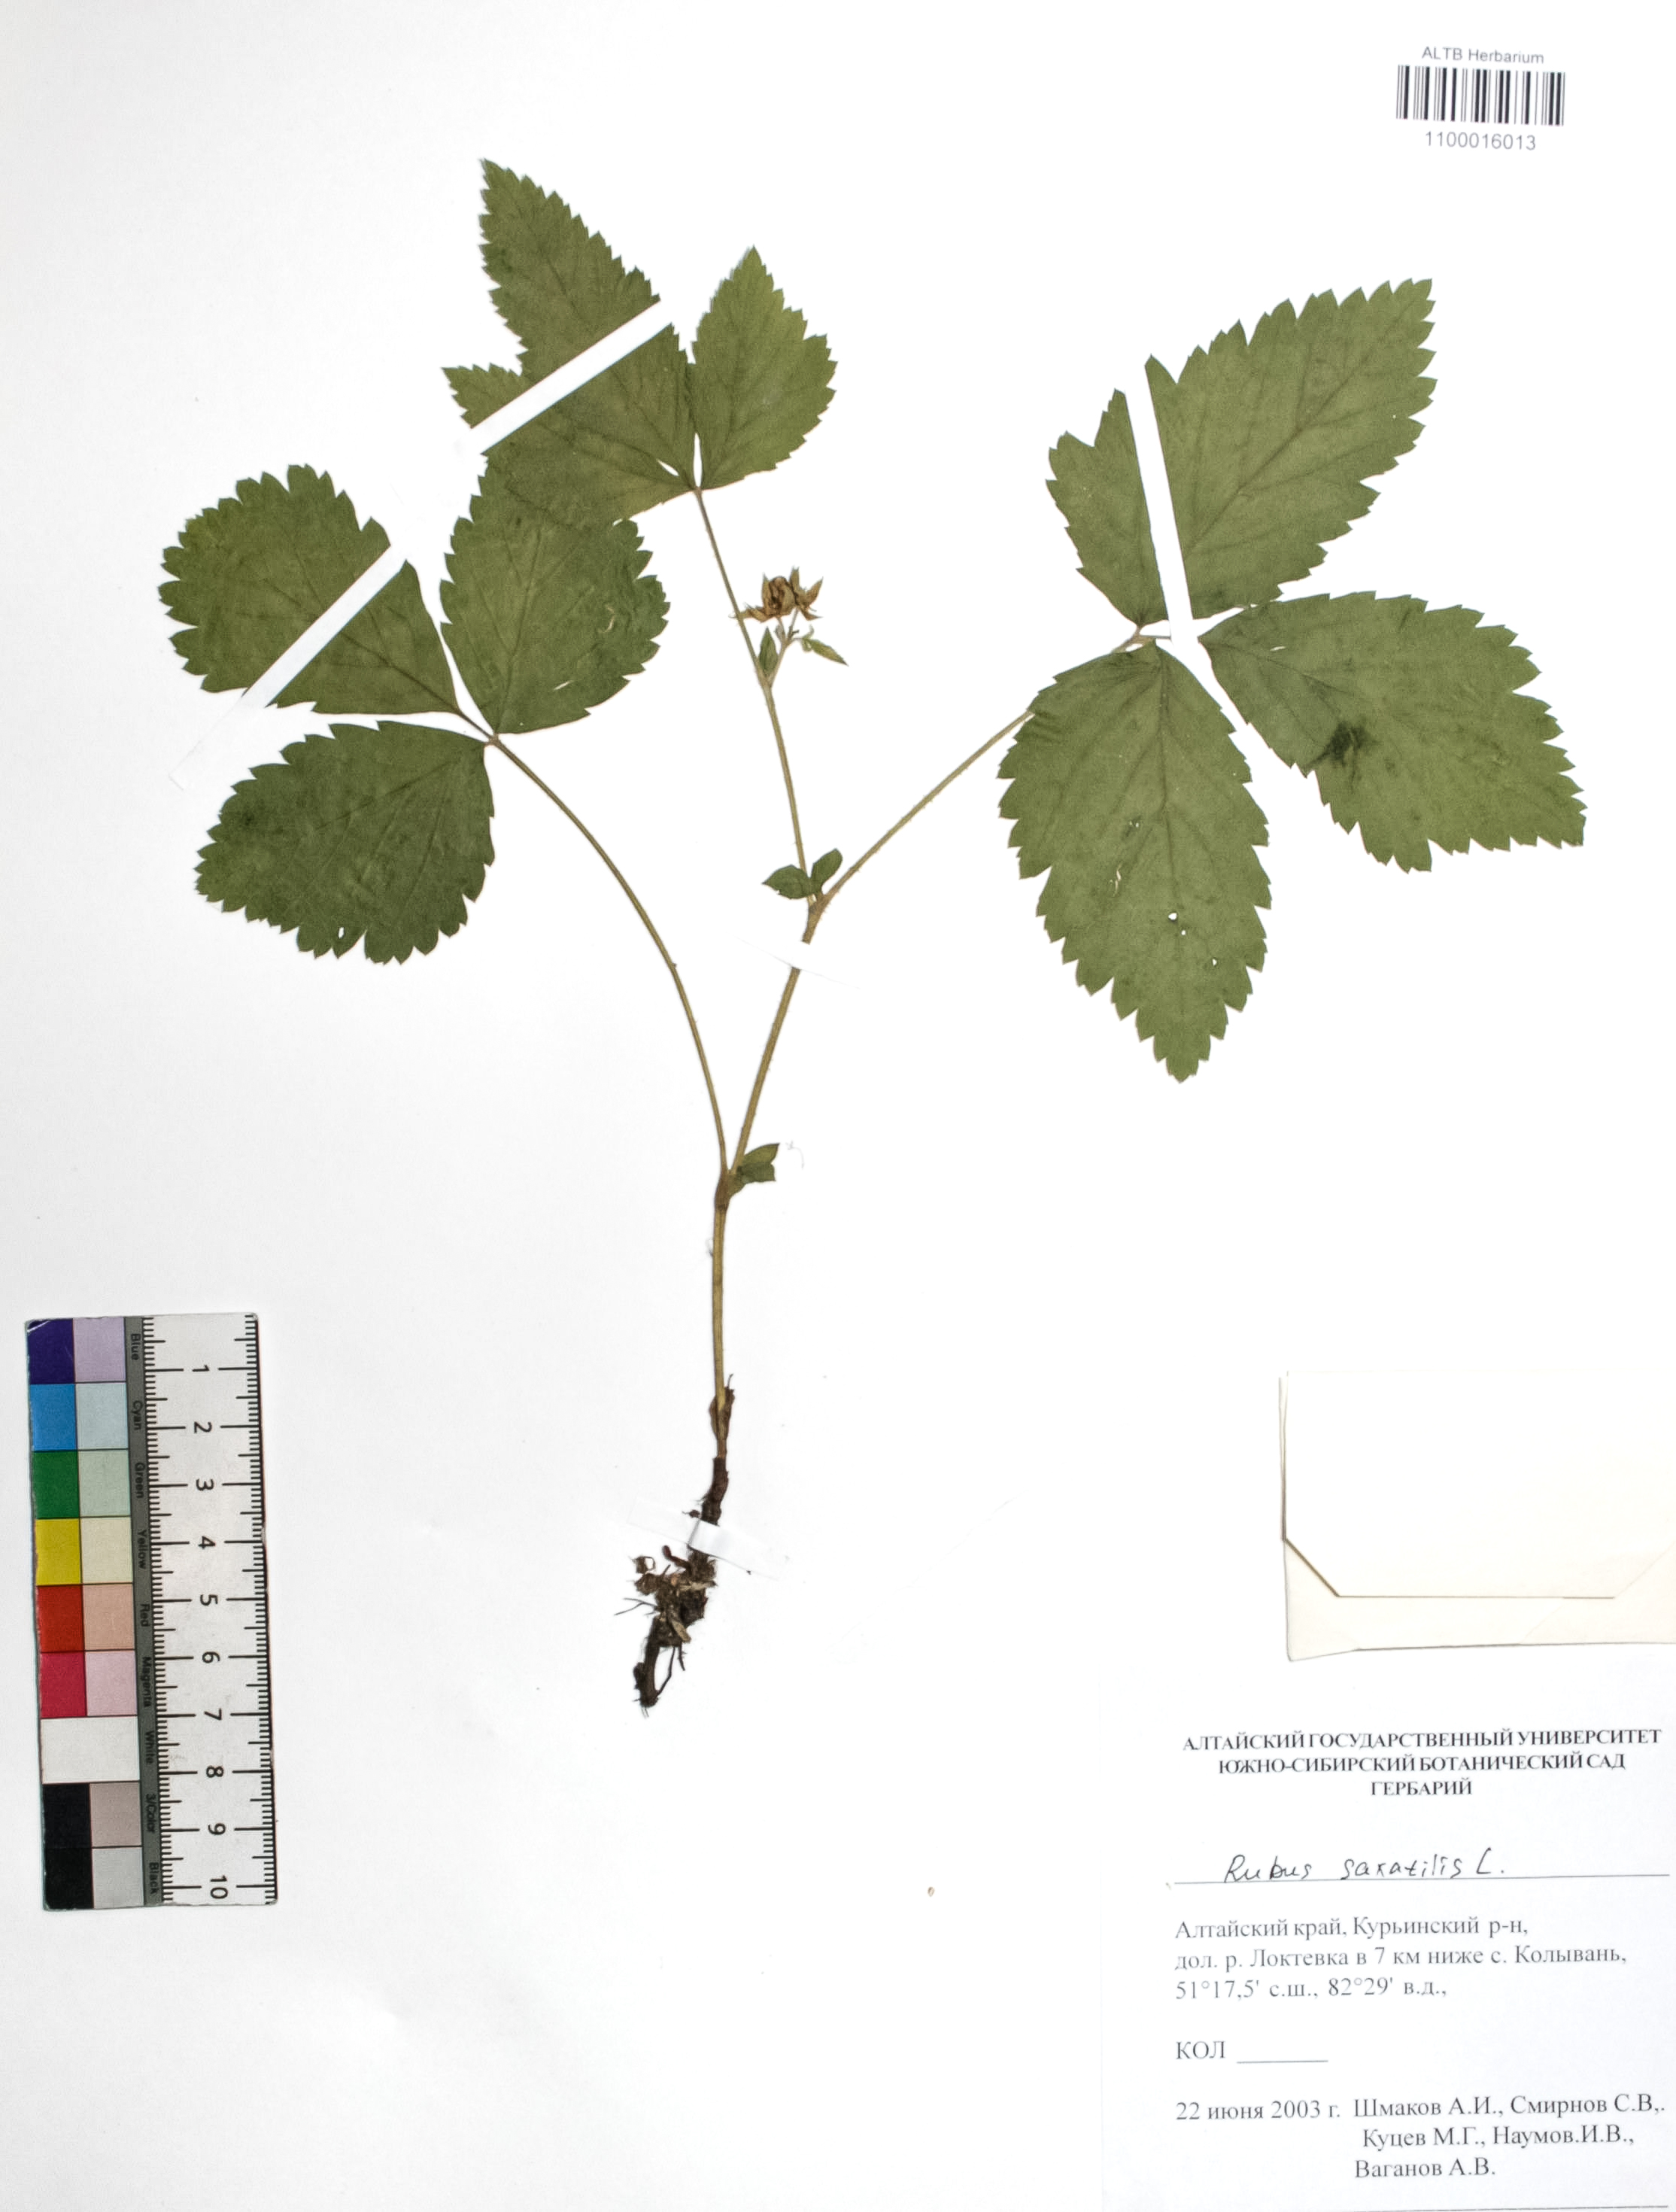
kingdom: Plantae
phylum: Tracheophyta
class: Magnoliopsida
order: Rosales
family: Rosaceae
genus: Rubus
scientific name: Rubus saxatilis
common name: Stone bramble
